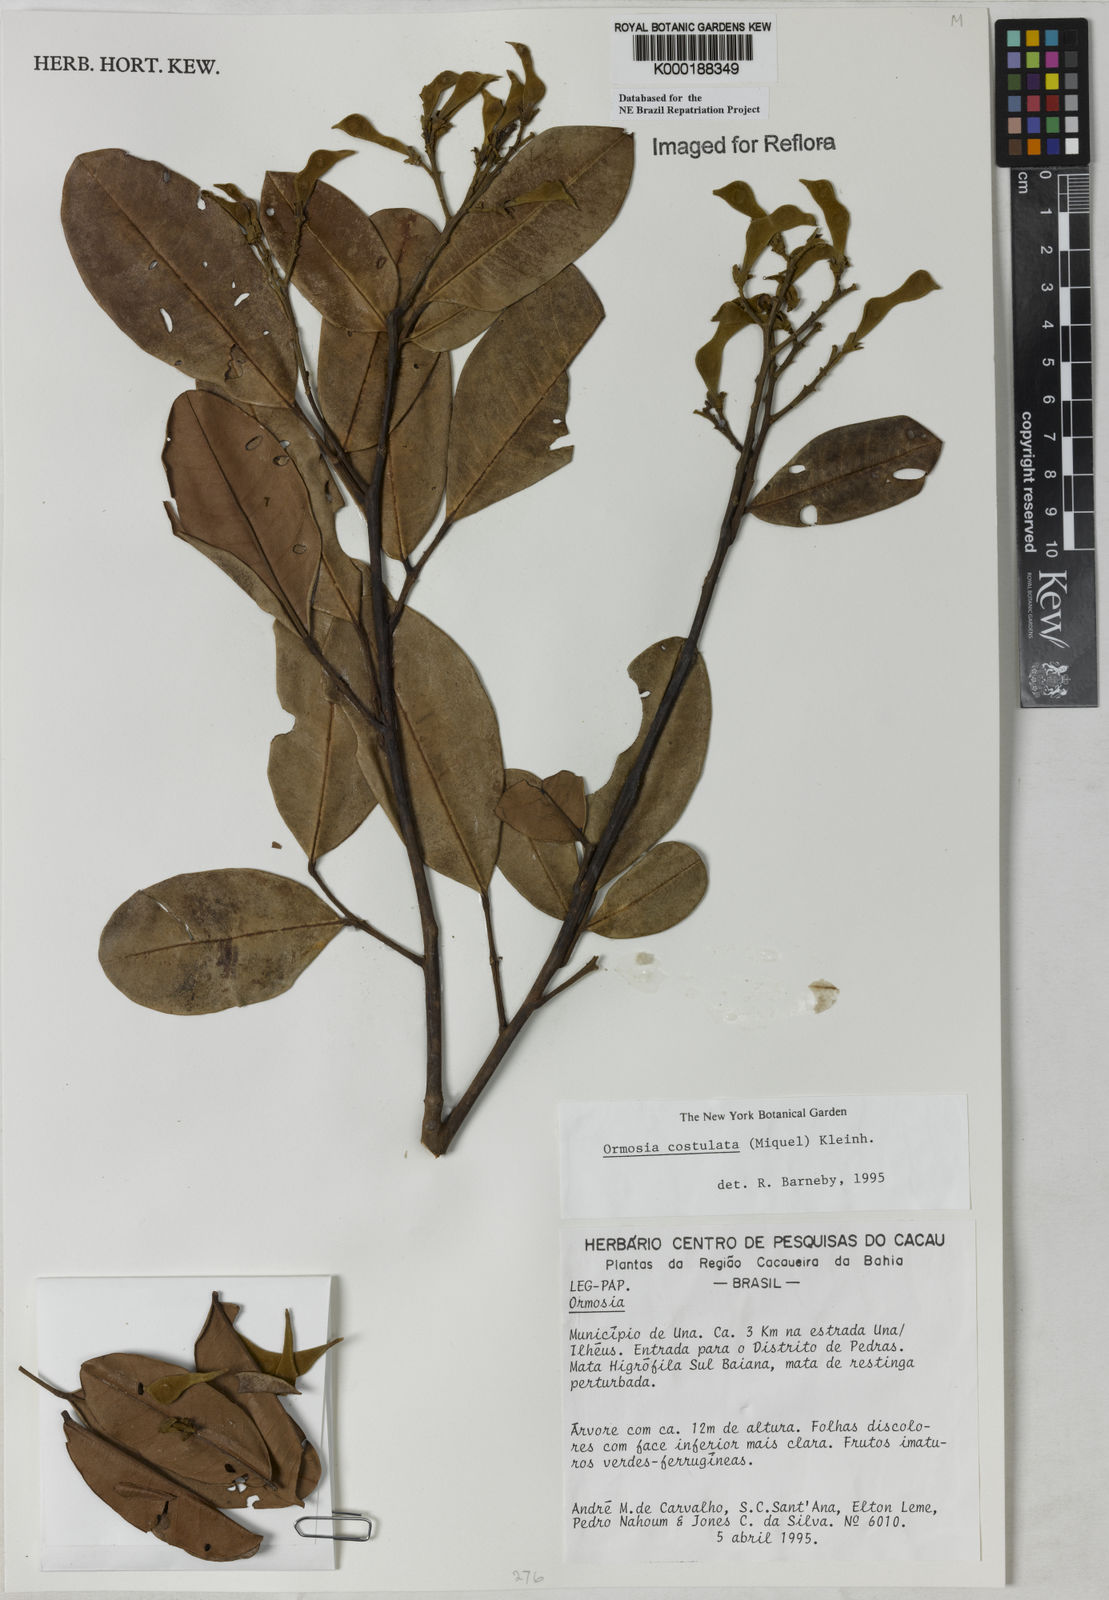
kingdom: Plantae
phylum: Tracheophyta
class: Magnoliopsida
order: Fabales
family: Fabaceae
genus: Ormosia
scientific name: Ormosia costulata
